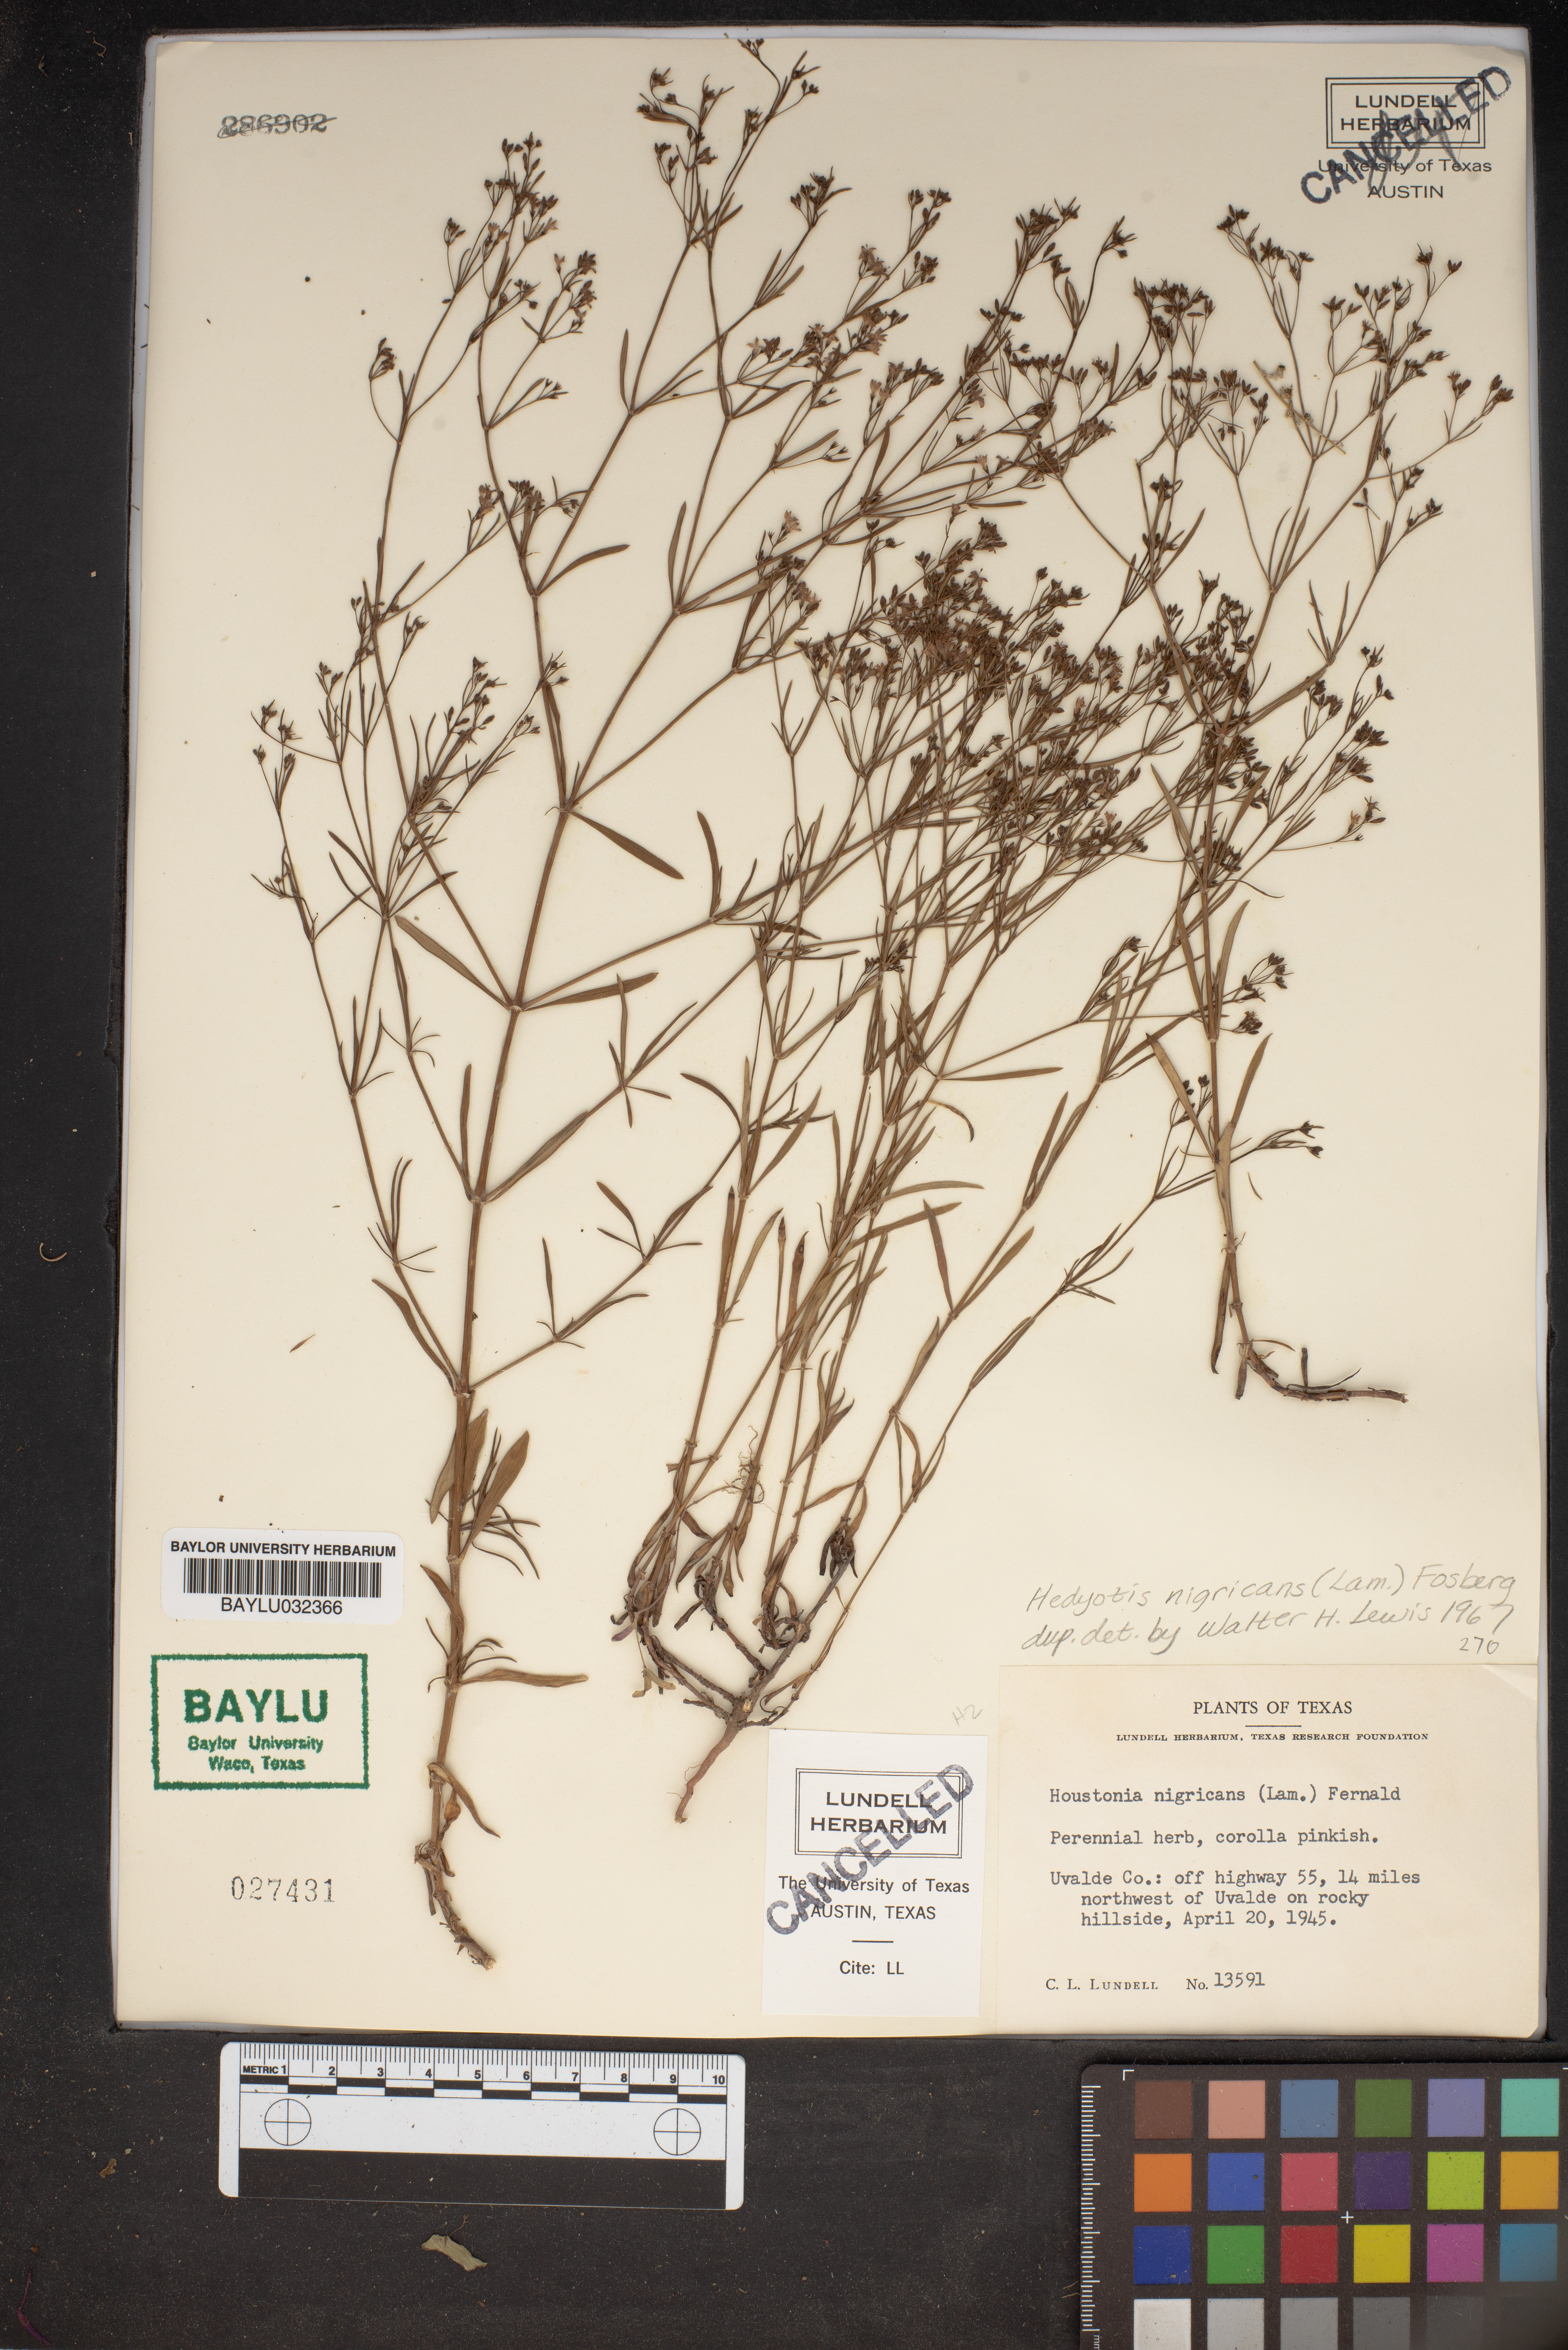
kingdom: Plantae
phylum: Tracheophyta
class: Magnoliopsida
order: Gentianales
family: Rubiaceae
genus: Stenaria
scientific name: Stenaria nigricans
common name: Diamondflowers
